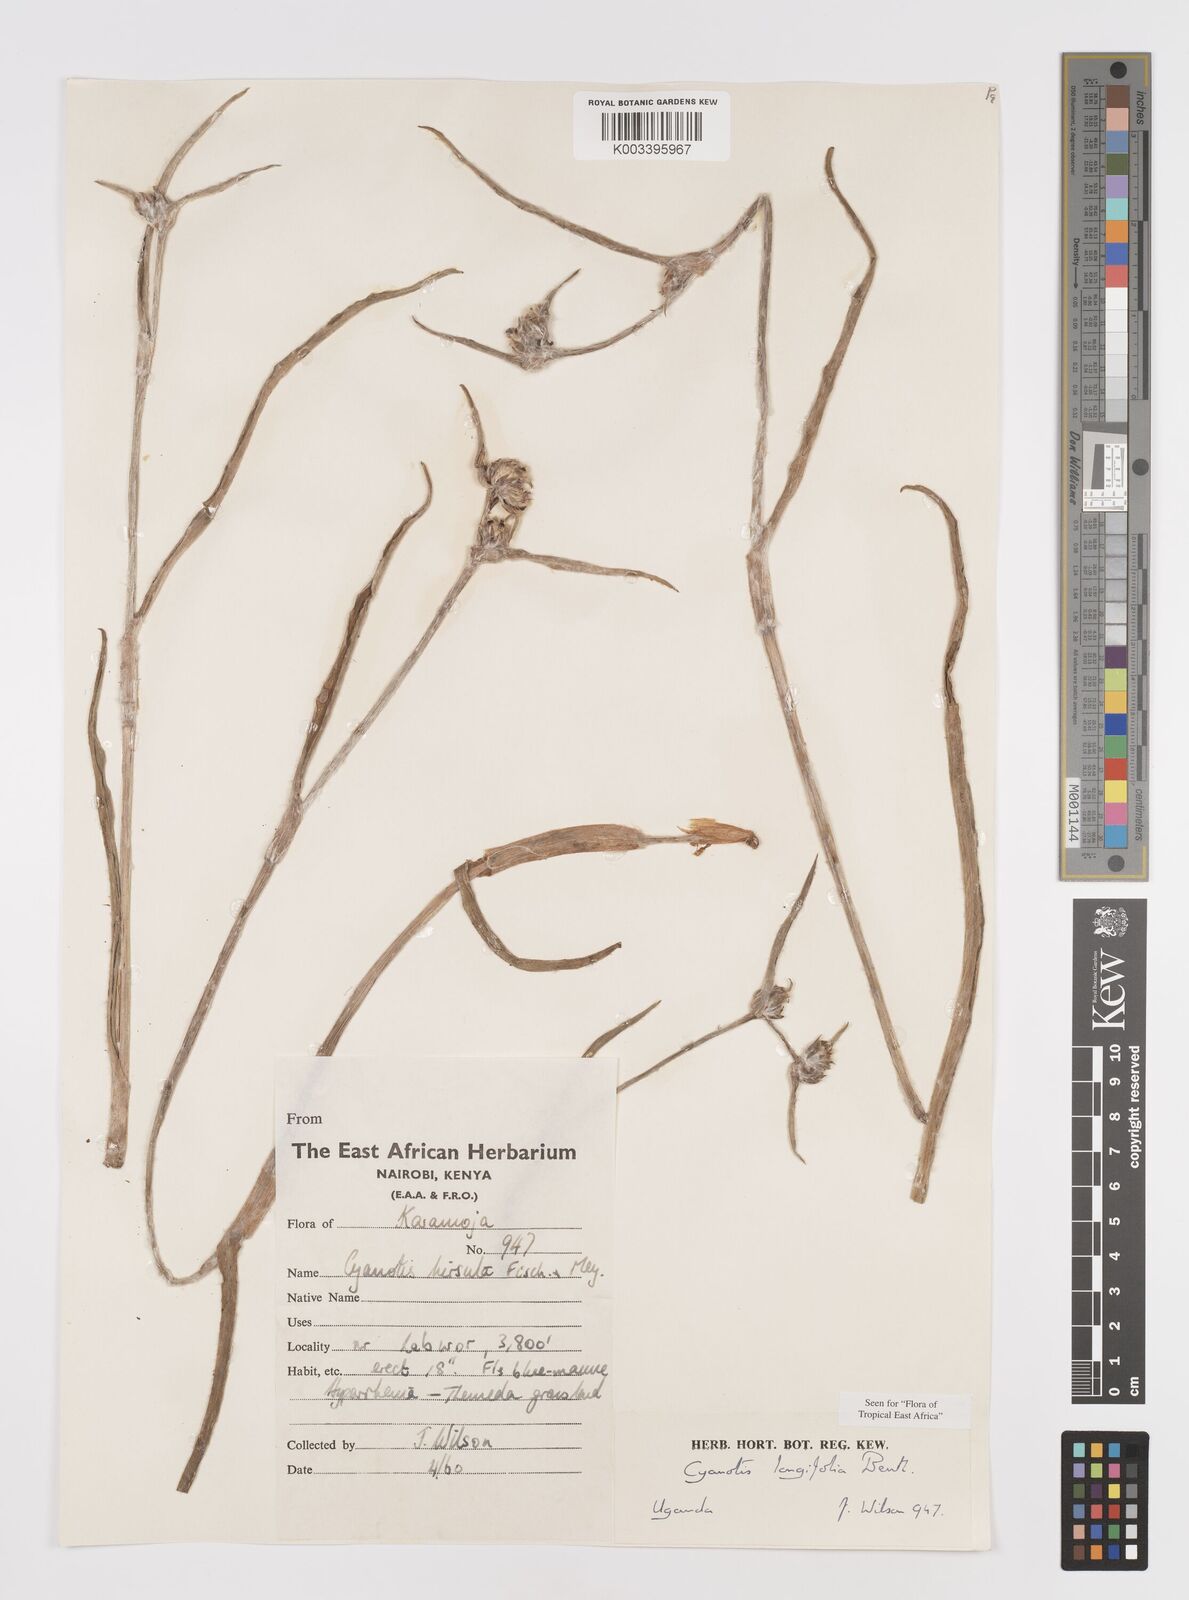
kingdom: Plantae
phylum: Tracheophyta
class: Liliopsida
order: Commelinales
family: Commelinaceae
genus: Cyanotis
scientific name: Cyanotis longifolia
